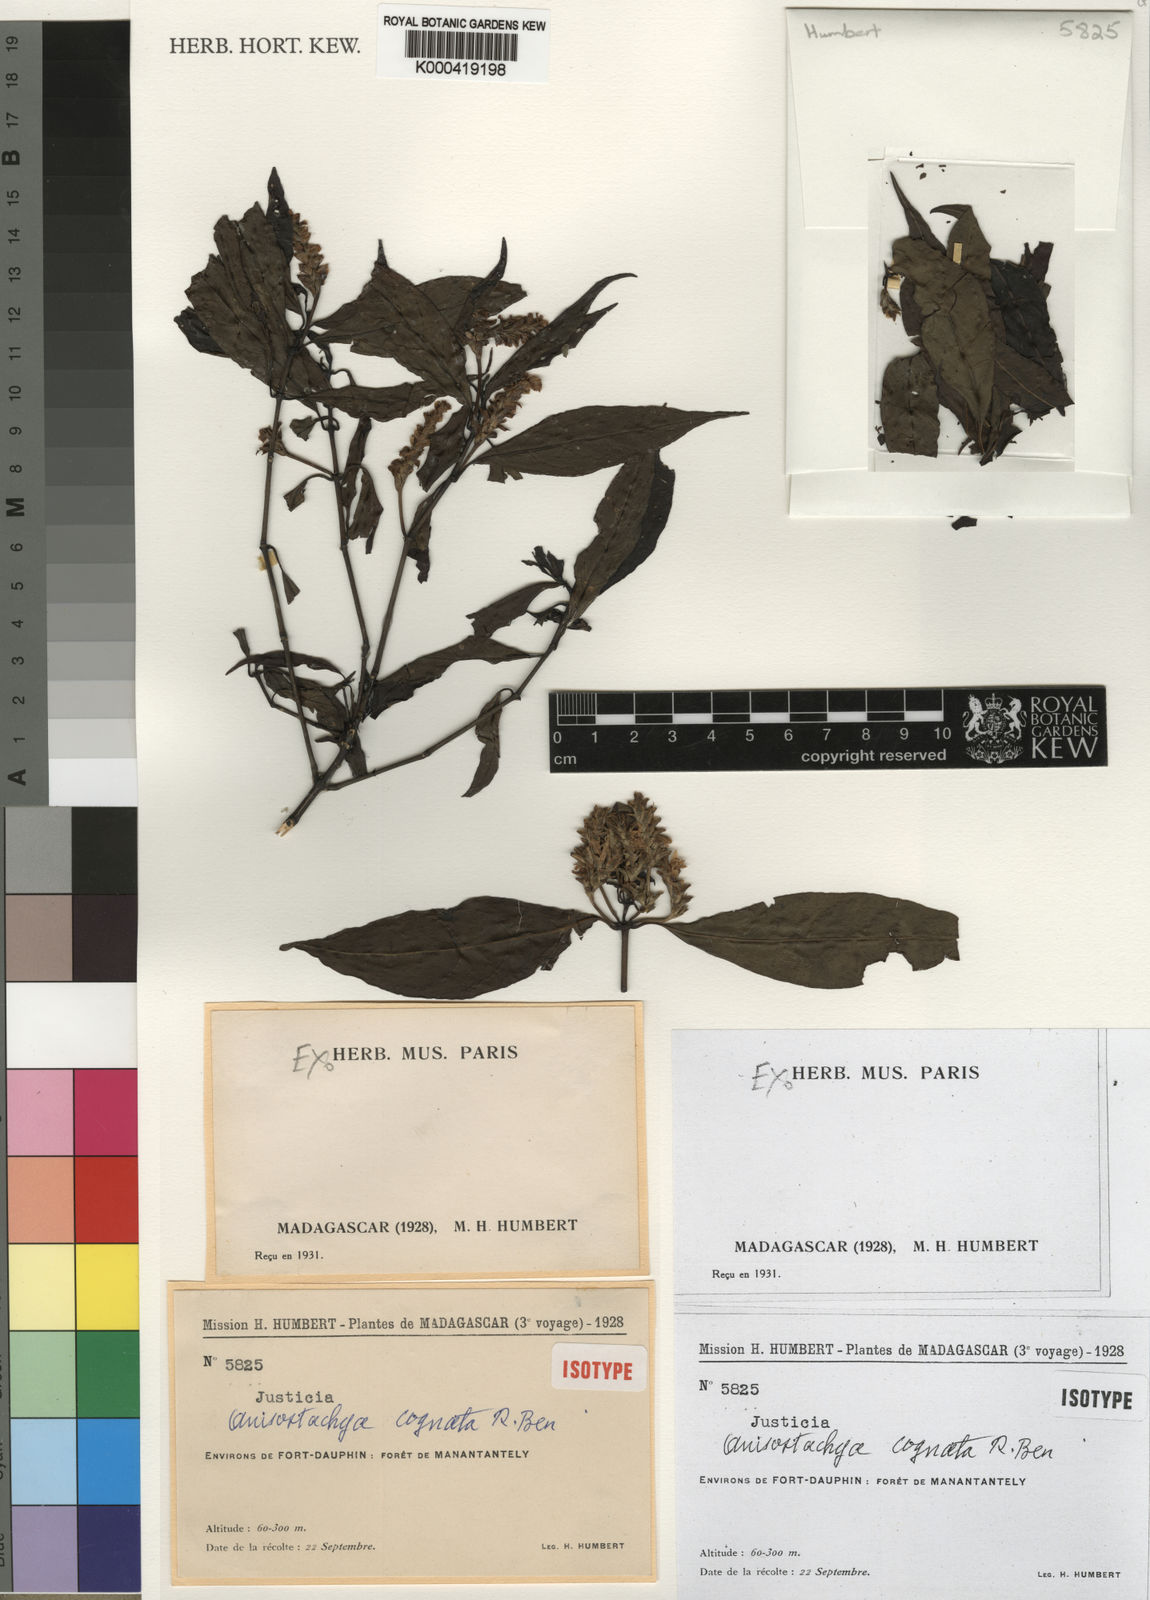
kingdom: Plantae
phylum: Tracheophyta
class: Magnoliopsida
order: Lamiales
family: Acanthaceae
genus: Justicia
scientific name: Justicia
